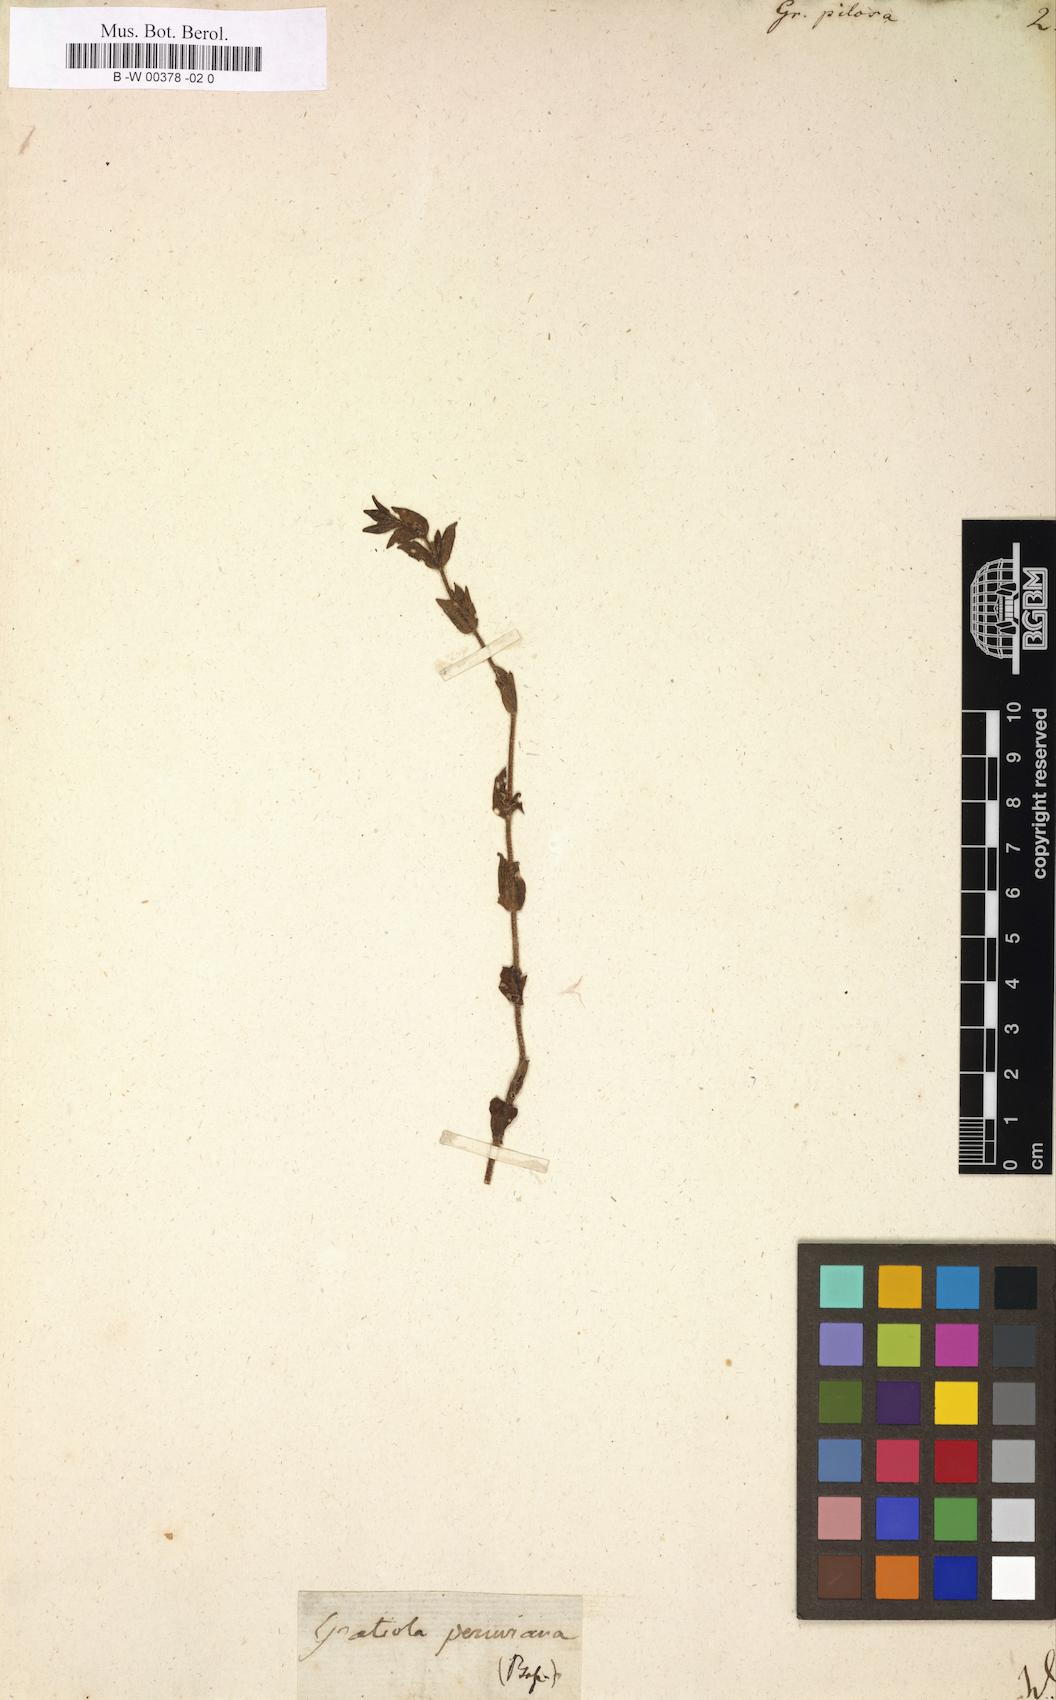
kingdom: Plantae
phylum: Tracheophyta
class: Magnoliopsida
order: Lamiales
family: Plantaginaceae
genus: Gratiola
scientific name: Gratiola pilosa
